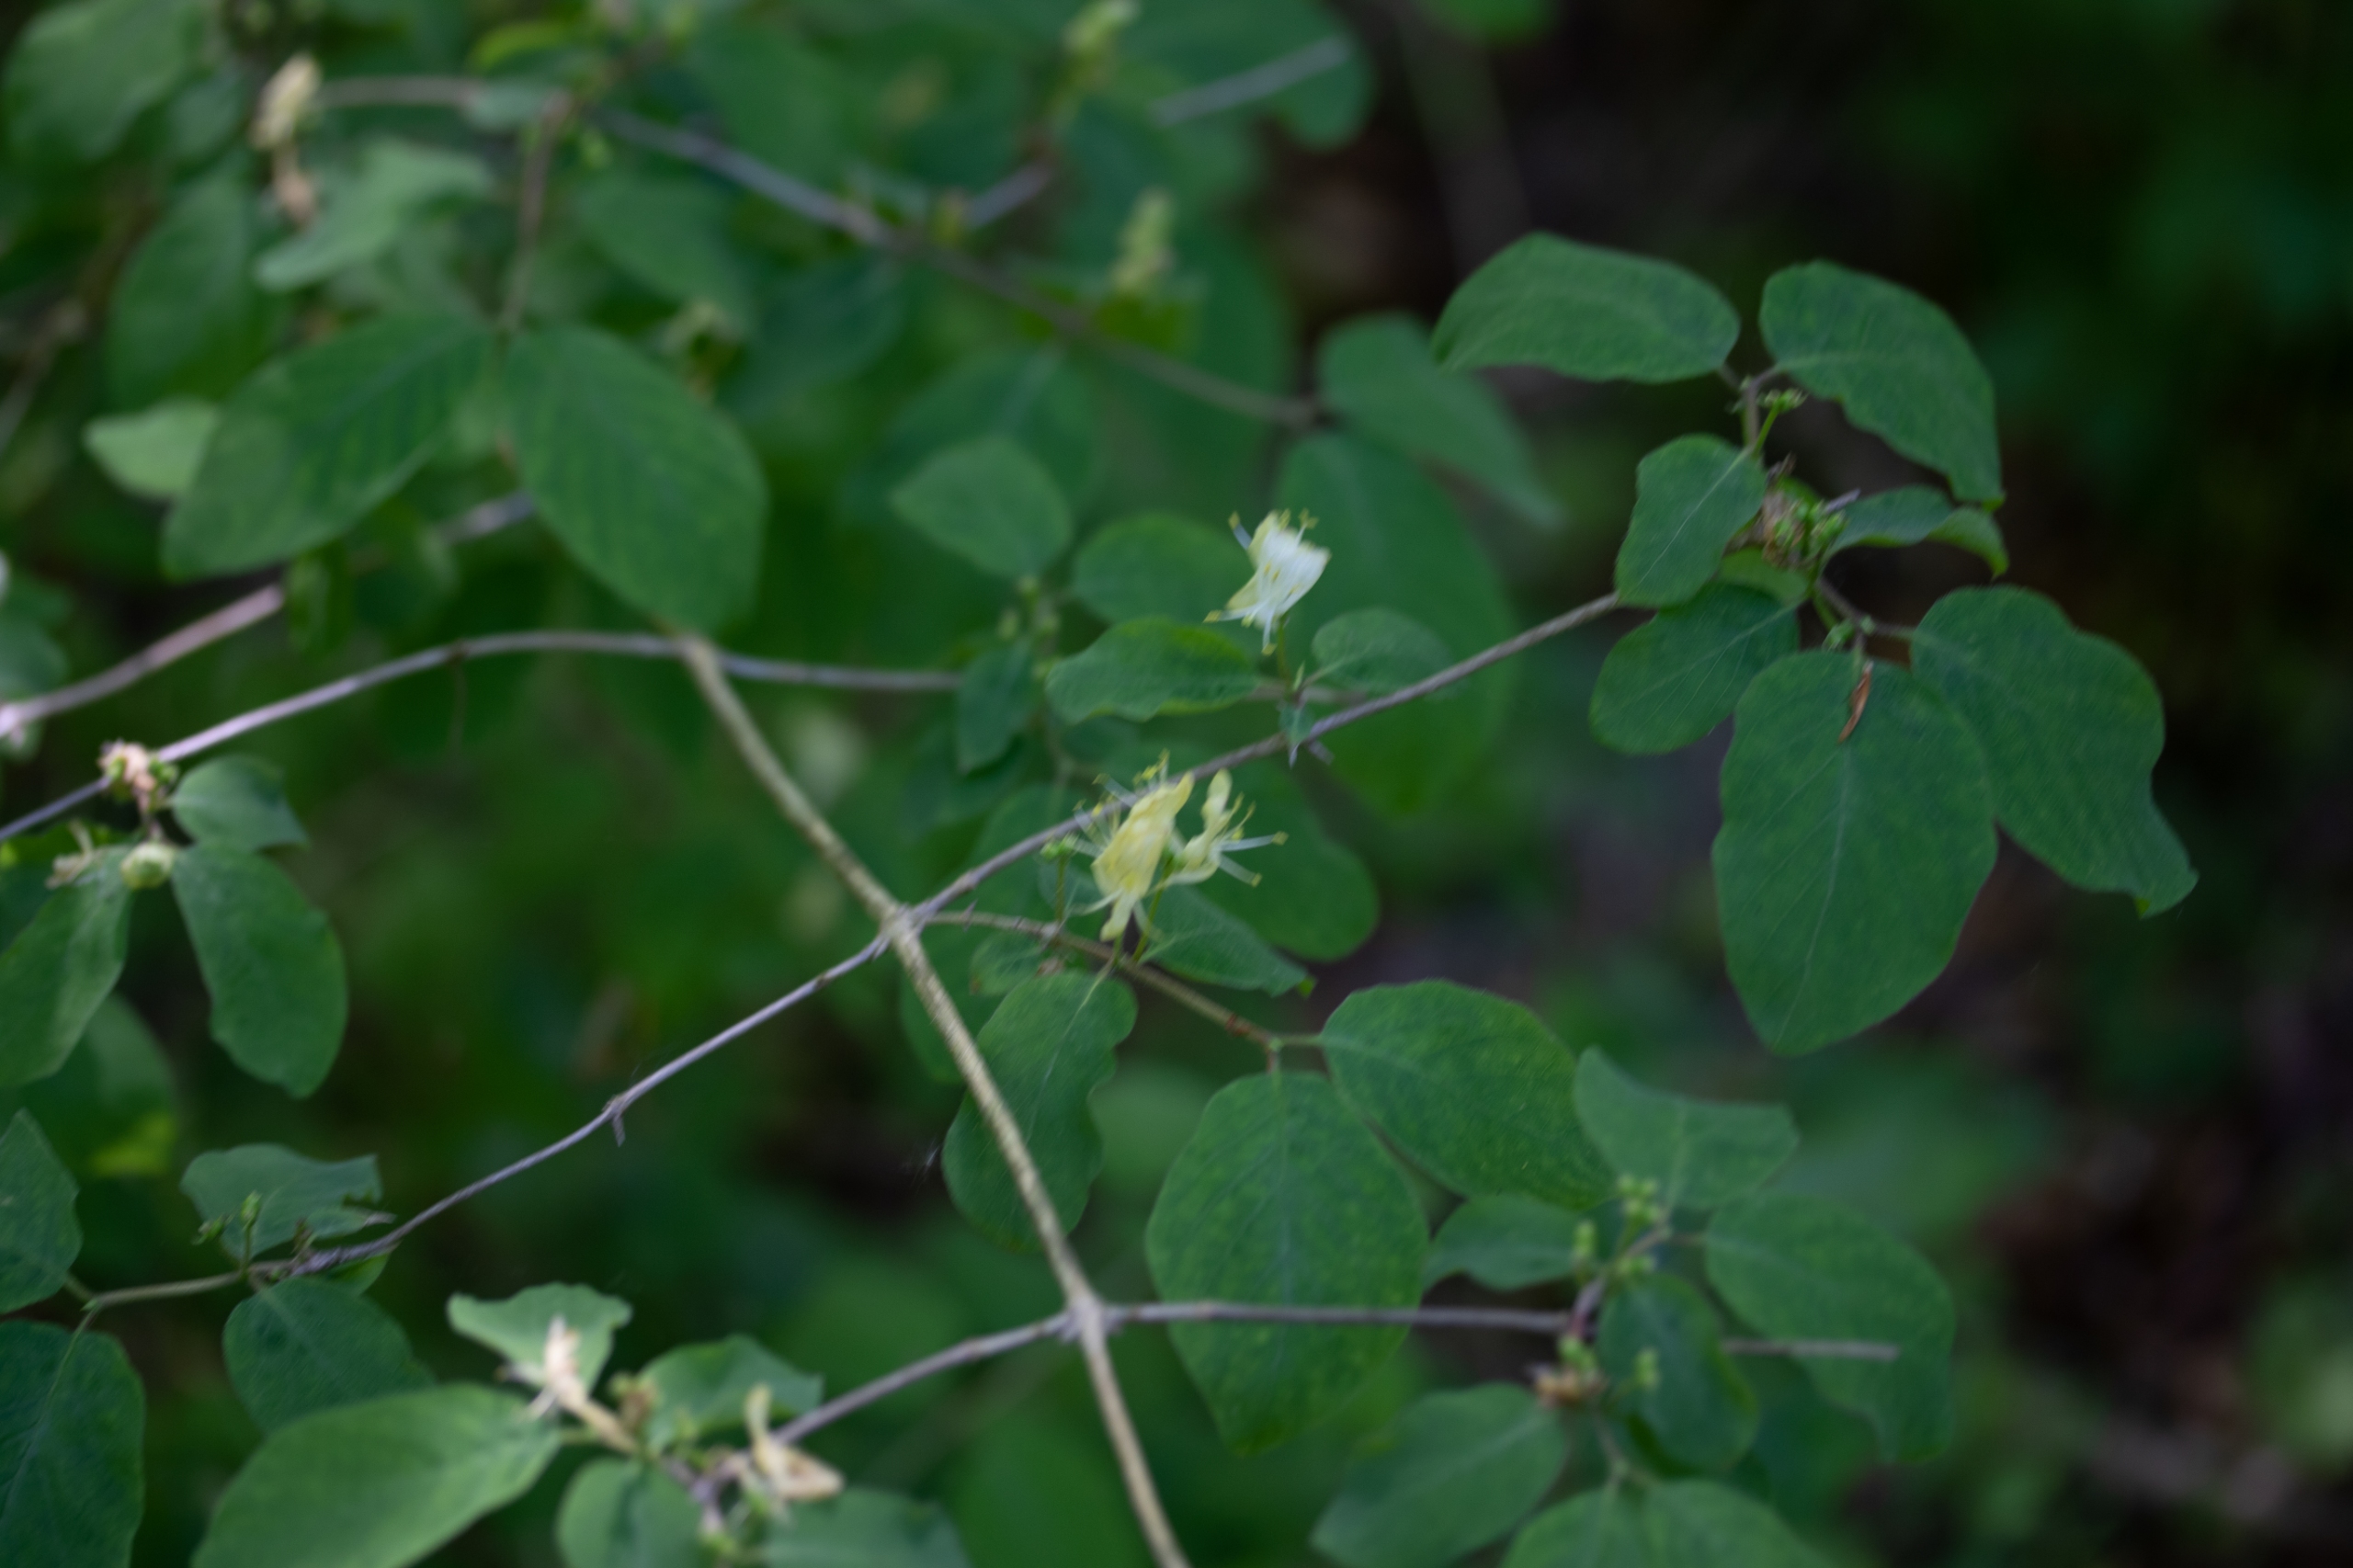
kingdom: Plantae
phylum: Tracheophyta
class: Magnoliopsida
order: Dipsacales
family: Caprifoliaceae
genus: Lonicera
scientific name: Lonicera xylosteum
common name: Dunet gedeblad
